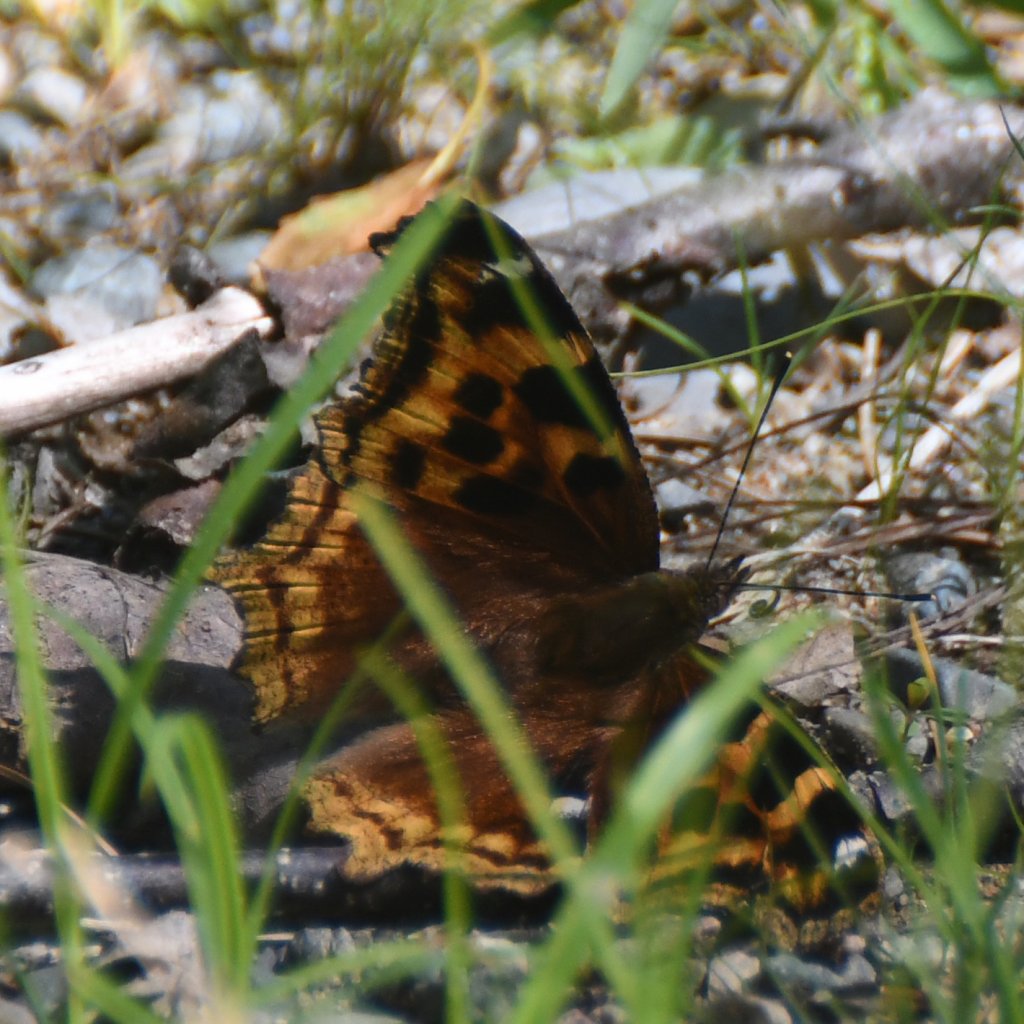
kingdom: Animalia
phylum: Arthropoda
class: Insecta
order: Lepidoptera
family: Nymphalidae
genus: Polygonia
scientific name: Polygonia vaualbum
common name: Compton Tortoiseshell
